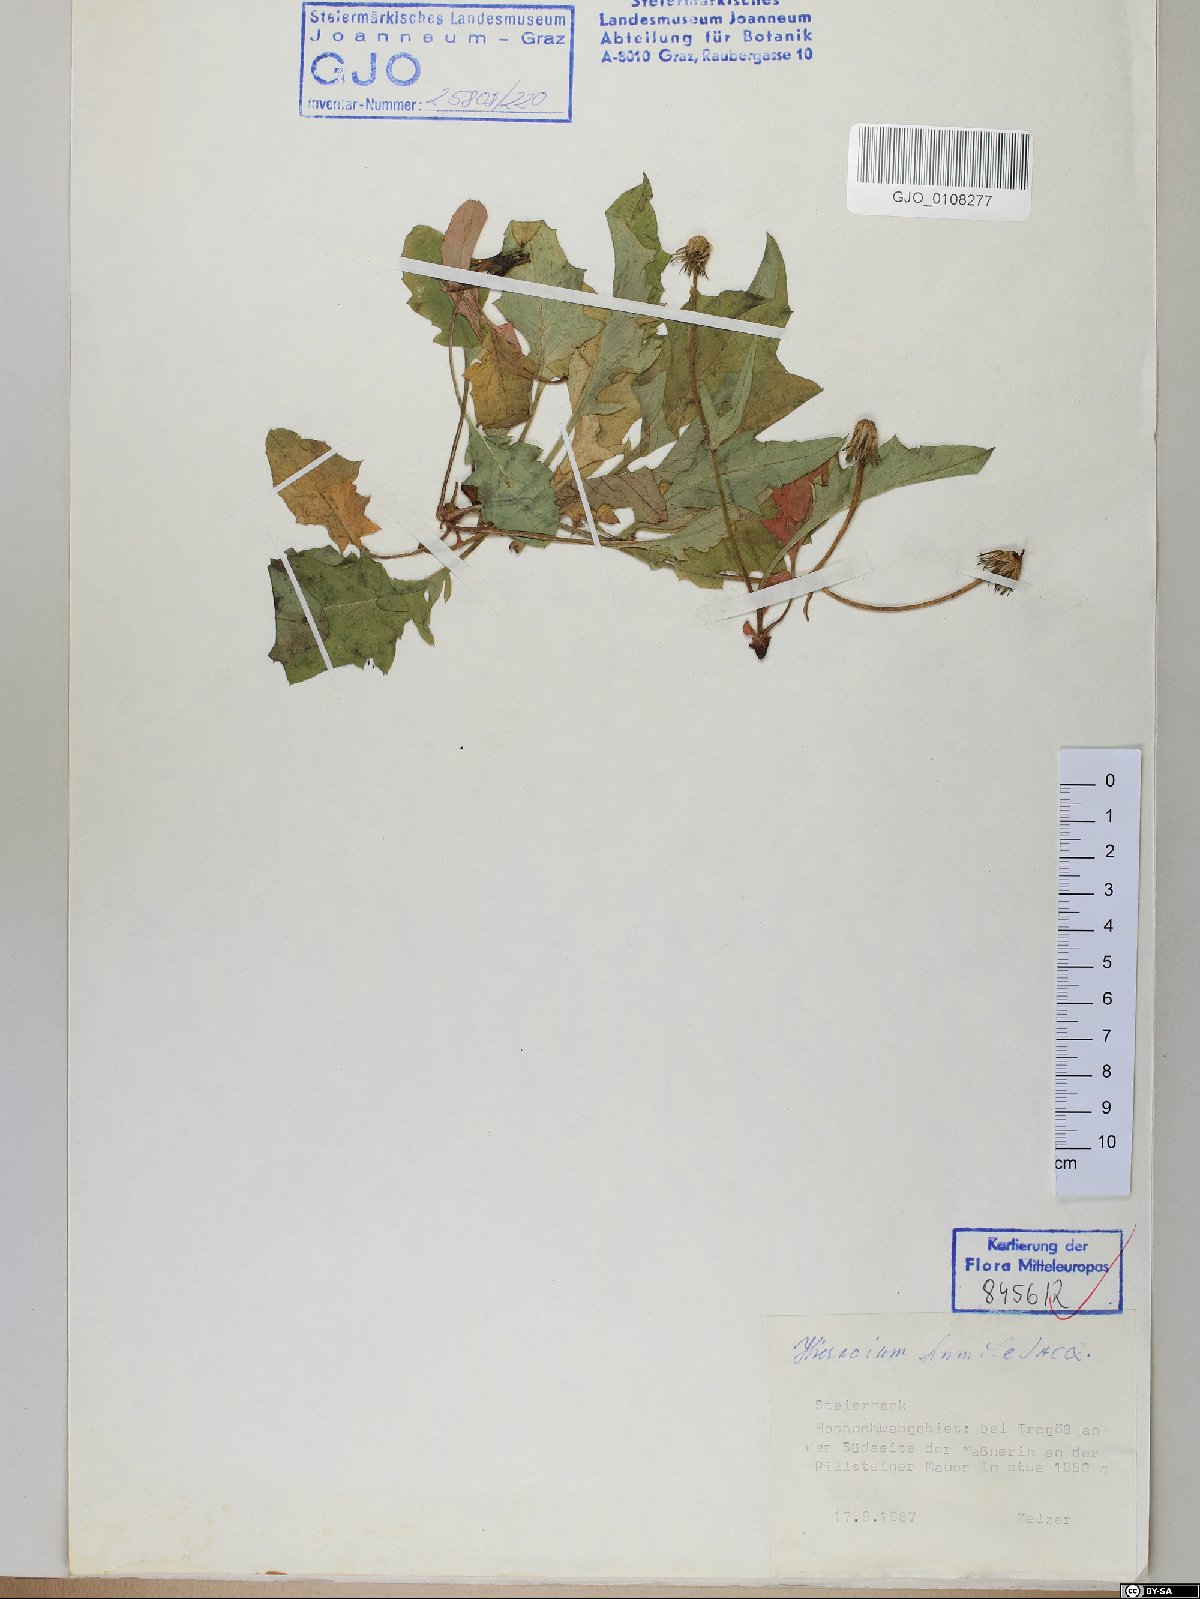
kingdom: Plantae
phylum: Tracheophyta
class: Magnoliopsida
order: Asterales
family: Asteraceae
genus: Hieracium
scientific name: Hieracium humile
